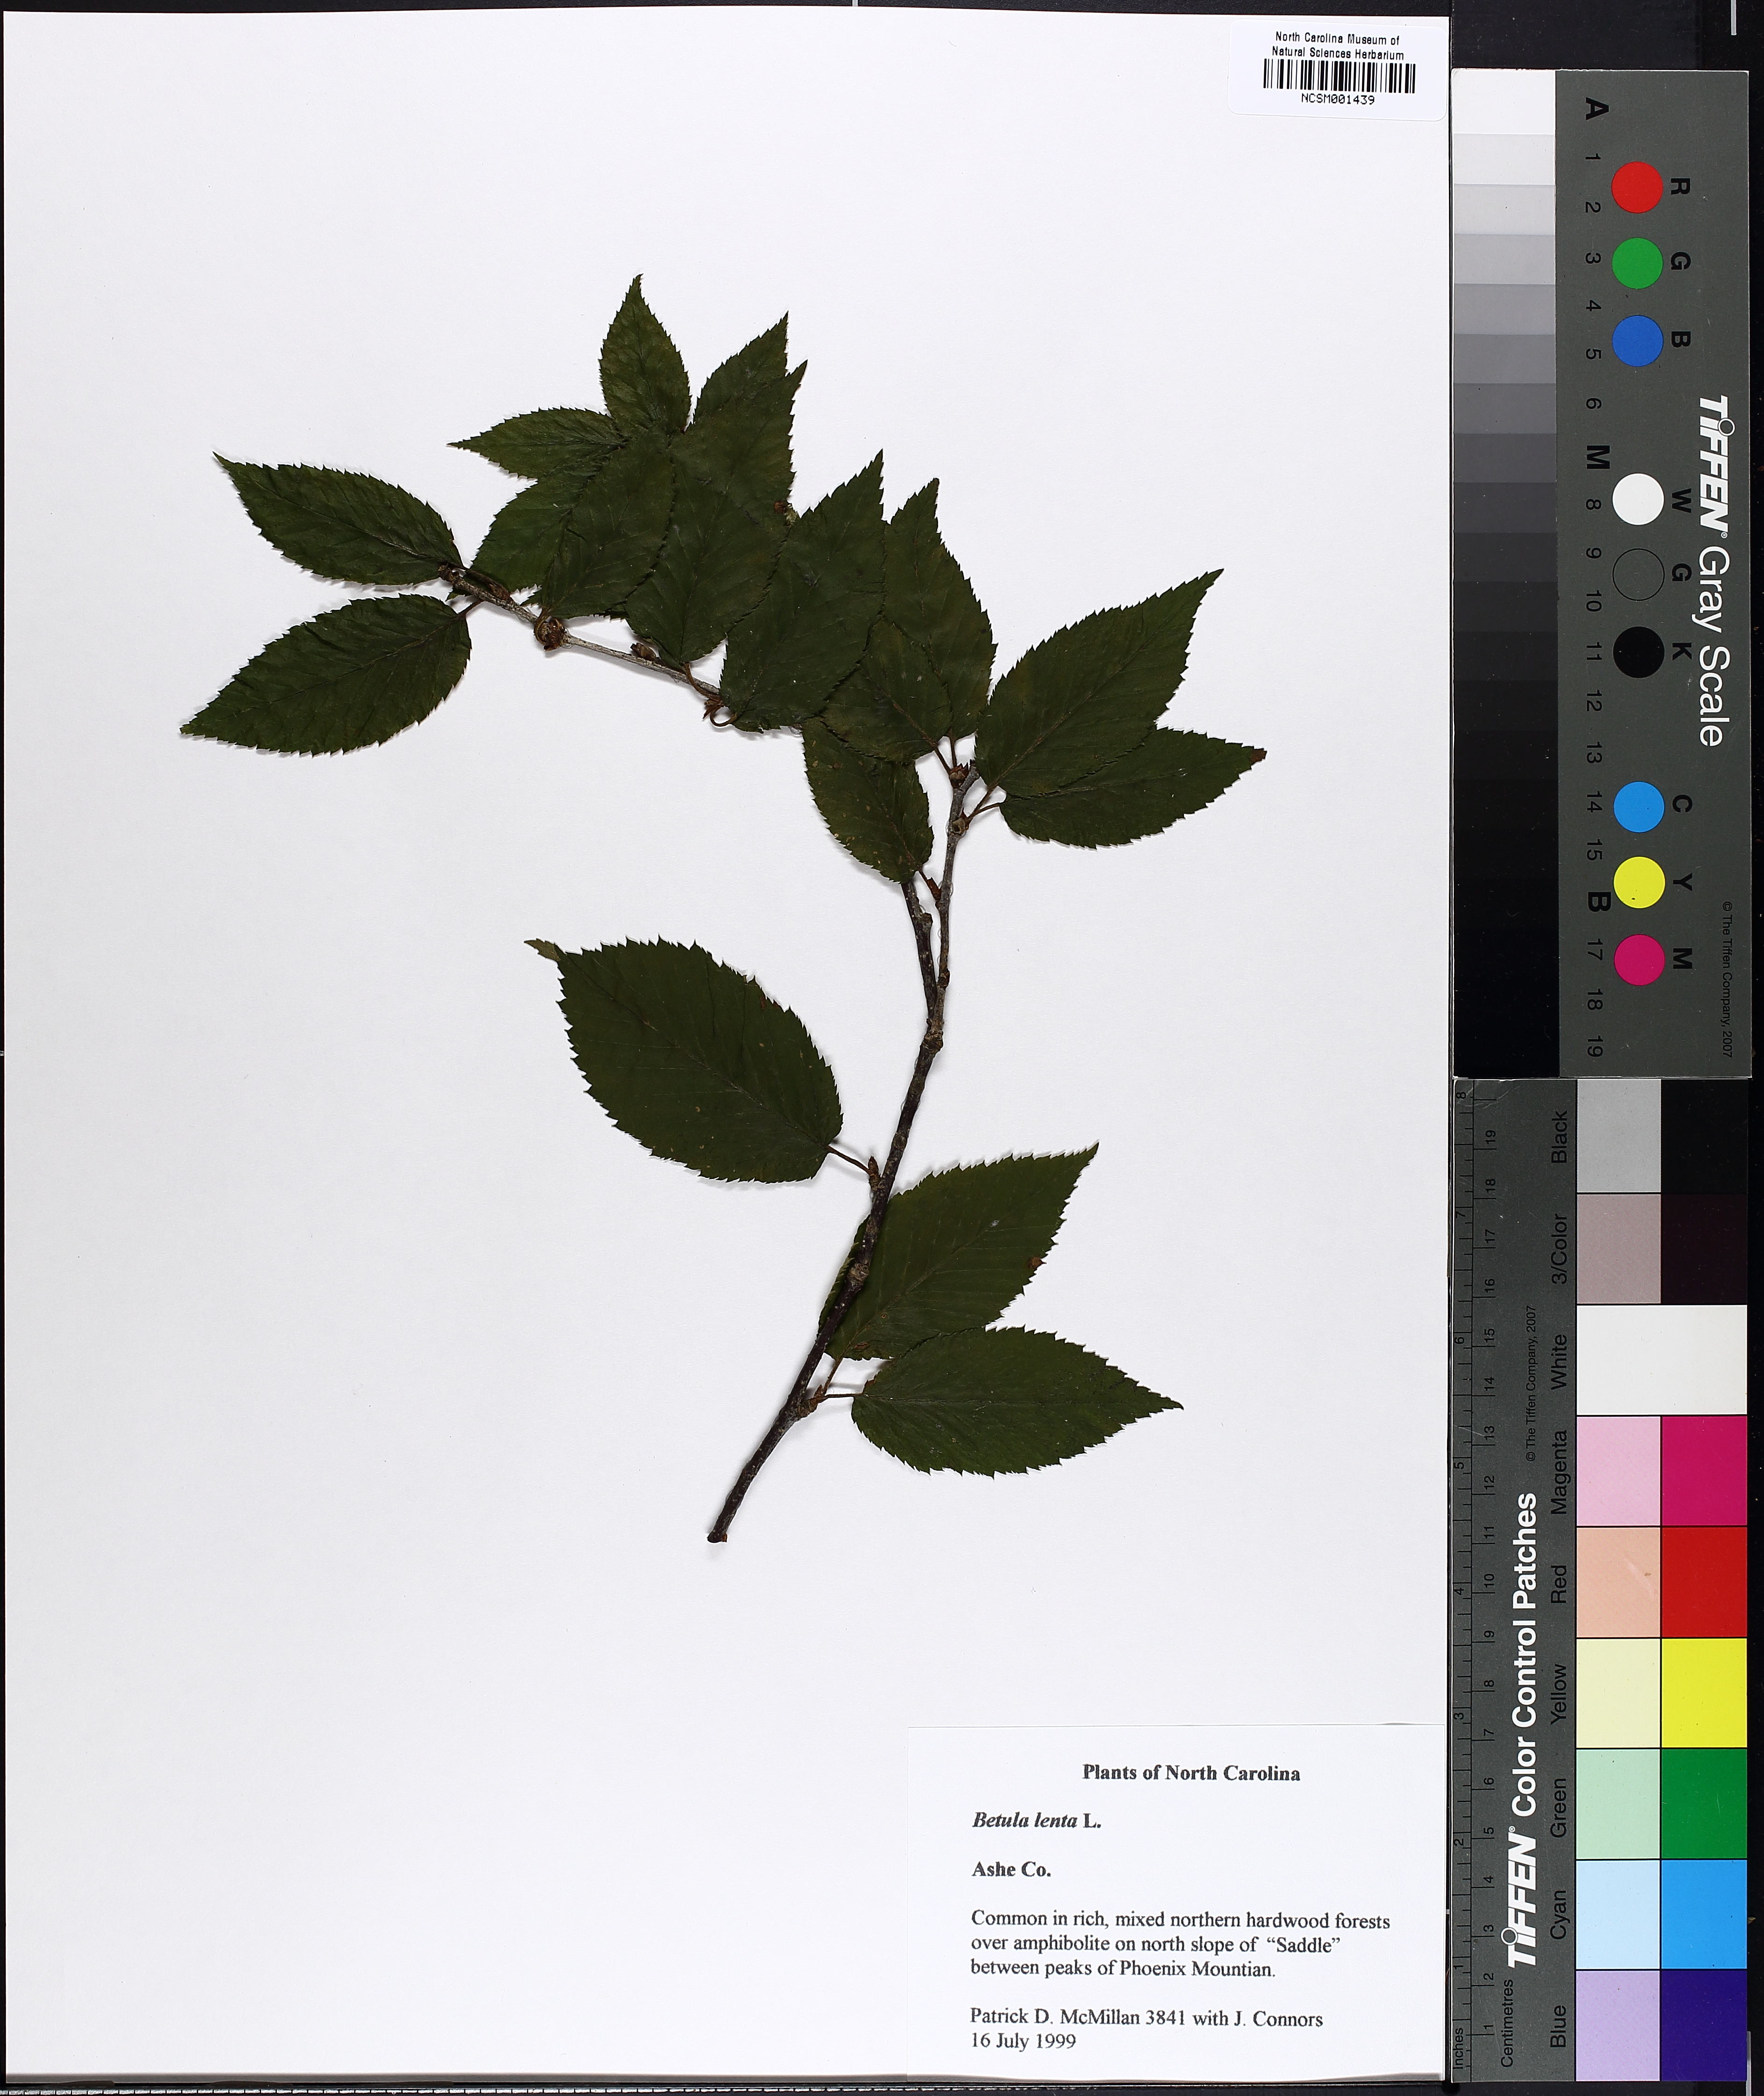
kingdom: Plantae
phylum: Tracheophyta
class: Magnoliopsida
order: Fagales
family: Betulaceae
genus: Betula
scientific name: Betula lenta
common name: Black birch
